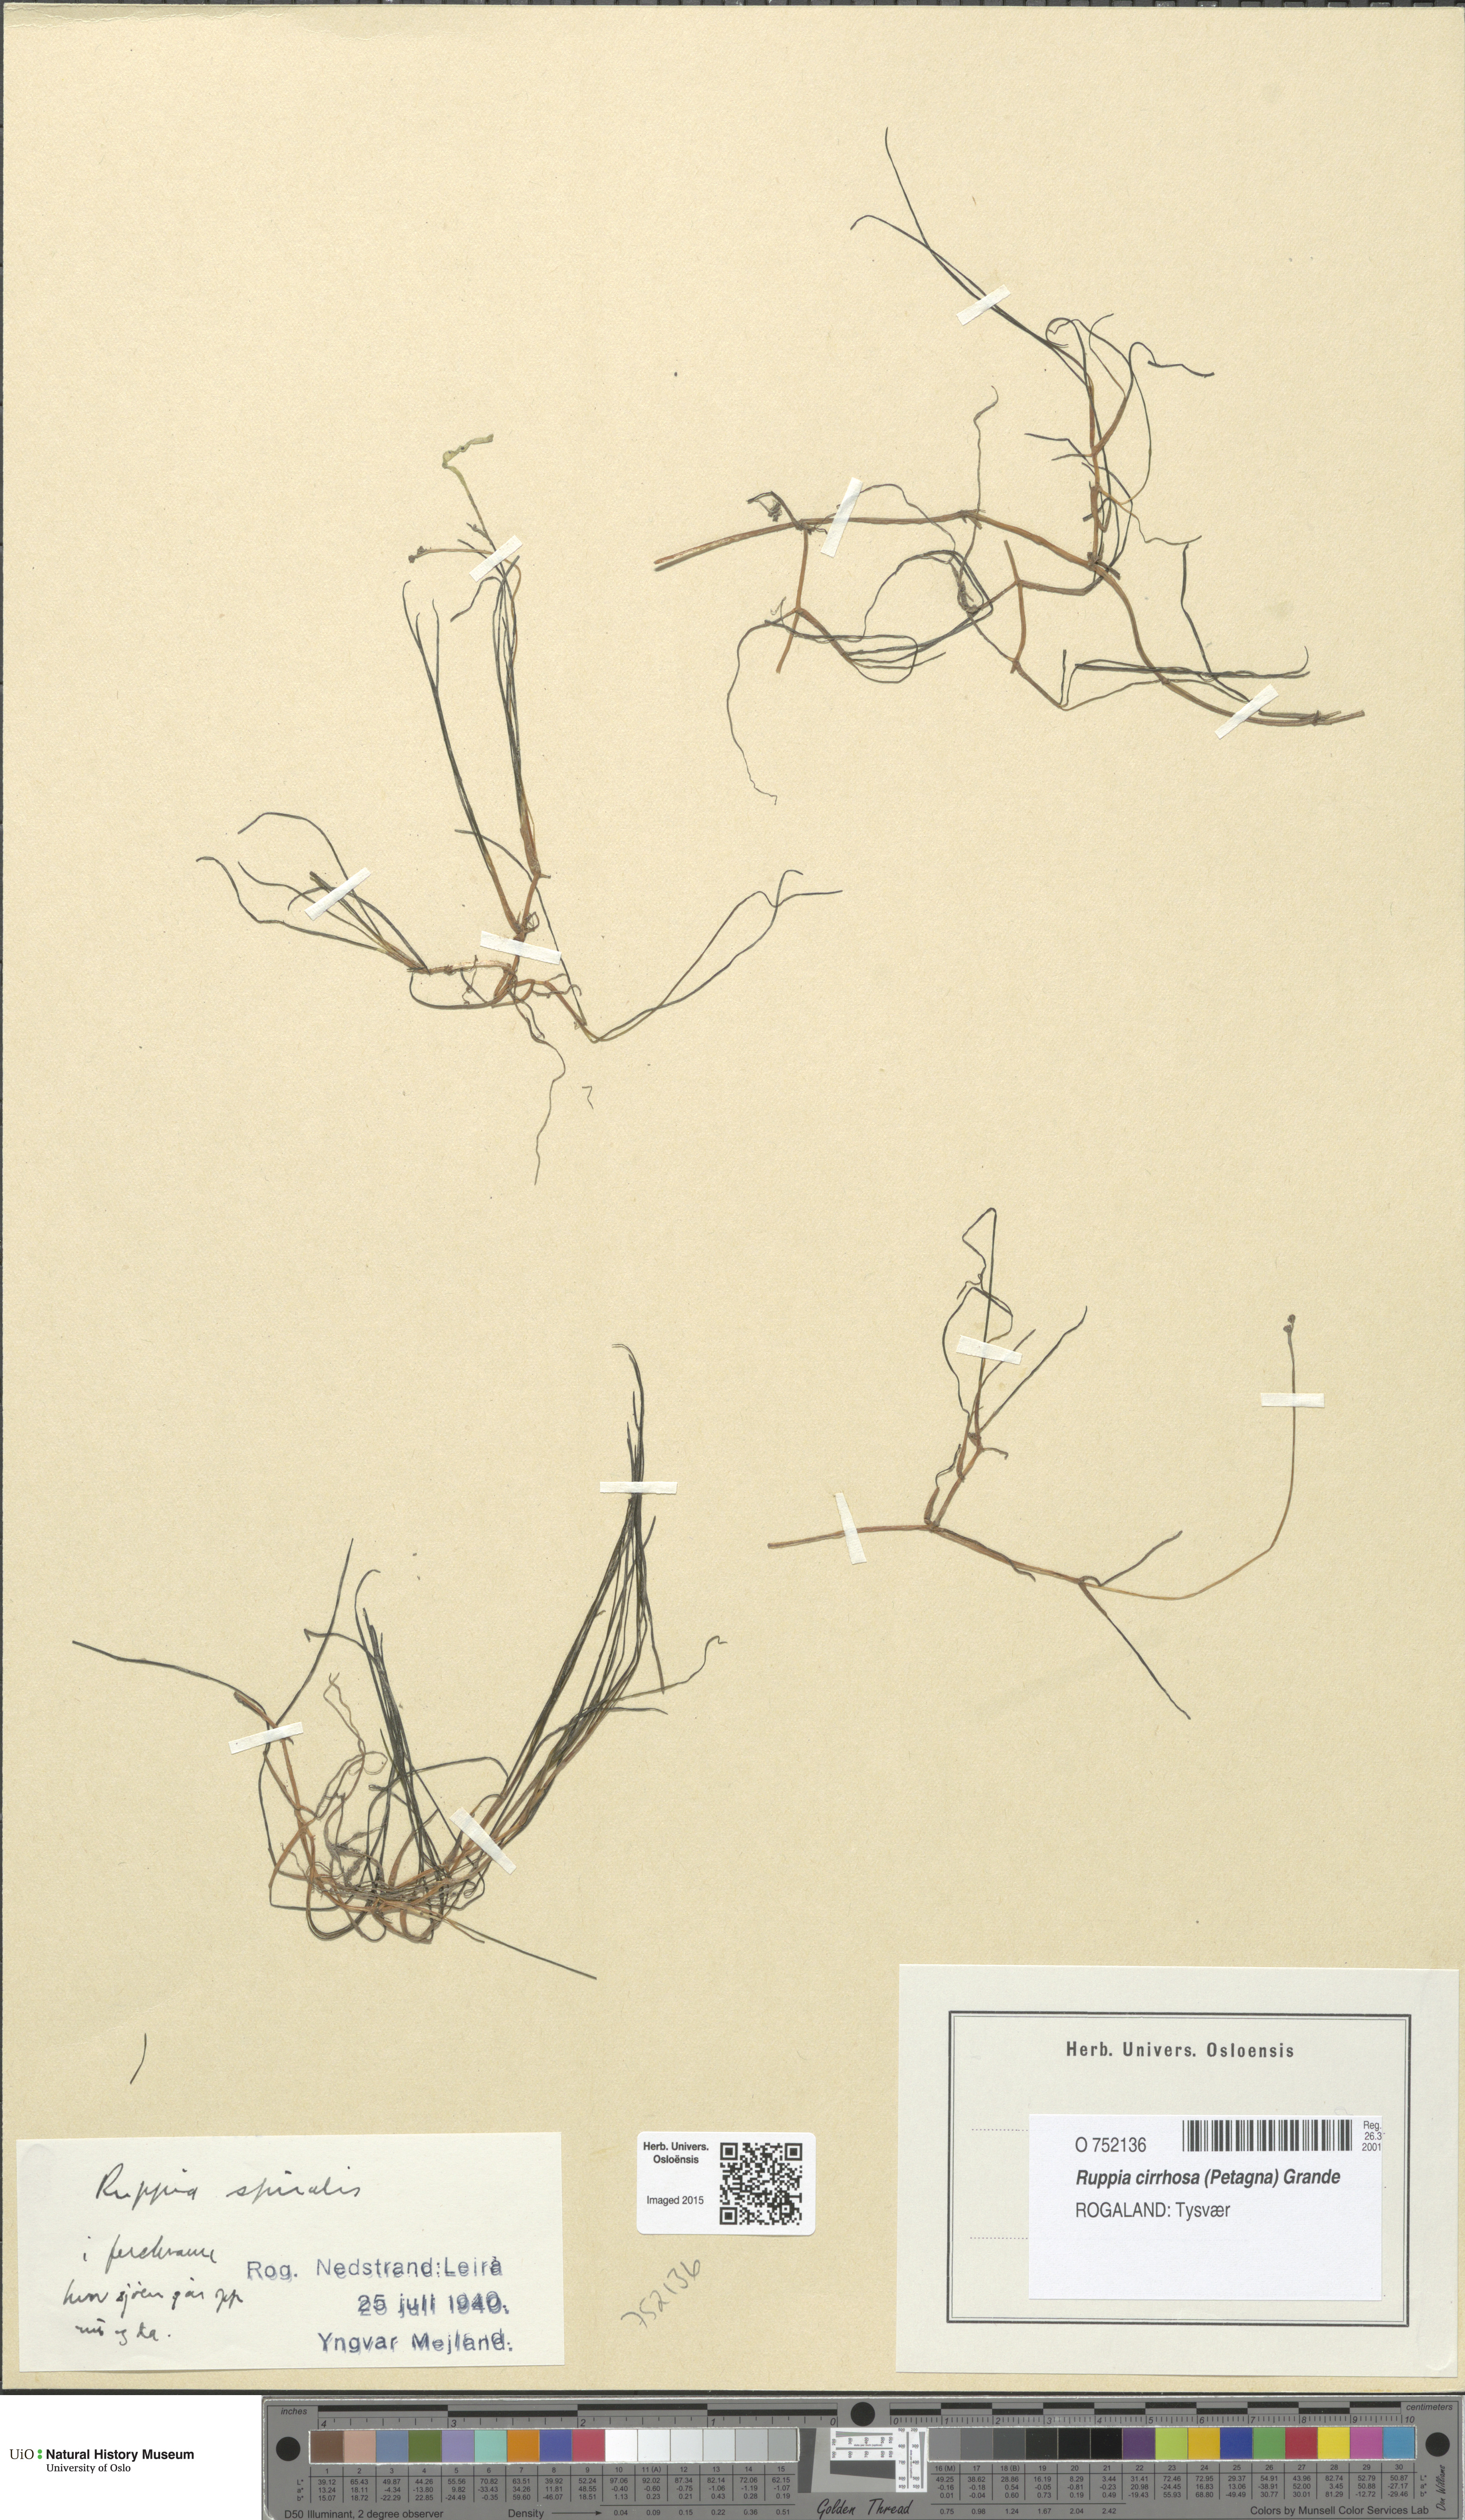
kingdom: Plantae
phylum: Tracheophyta
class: Liliopsida
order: Alismatales
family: Ruppiaceae
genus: Ruppia
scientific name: Ruppia cirrhosa
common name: Spiral tasselweed
